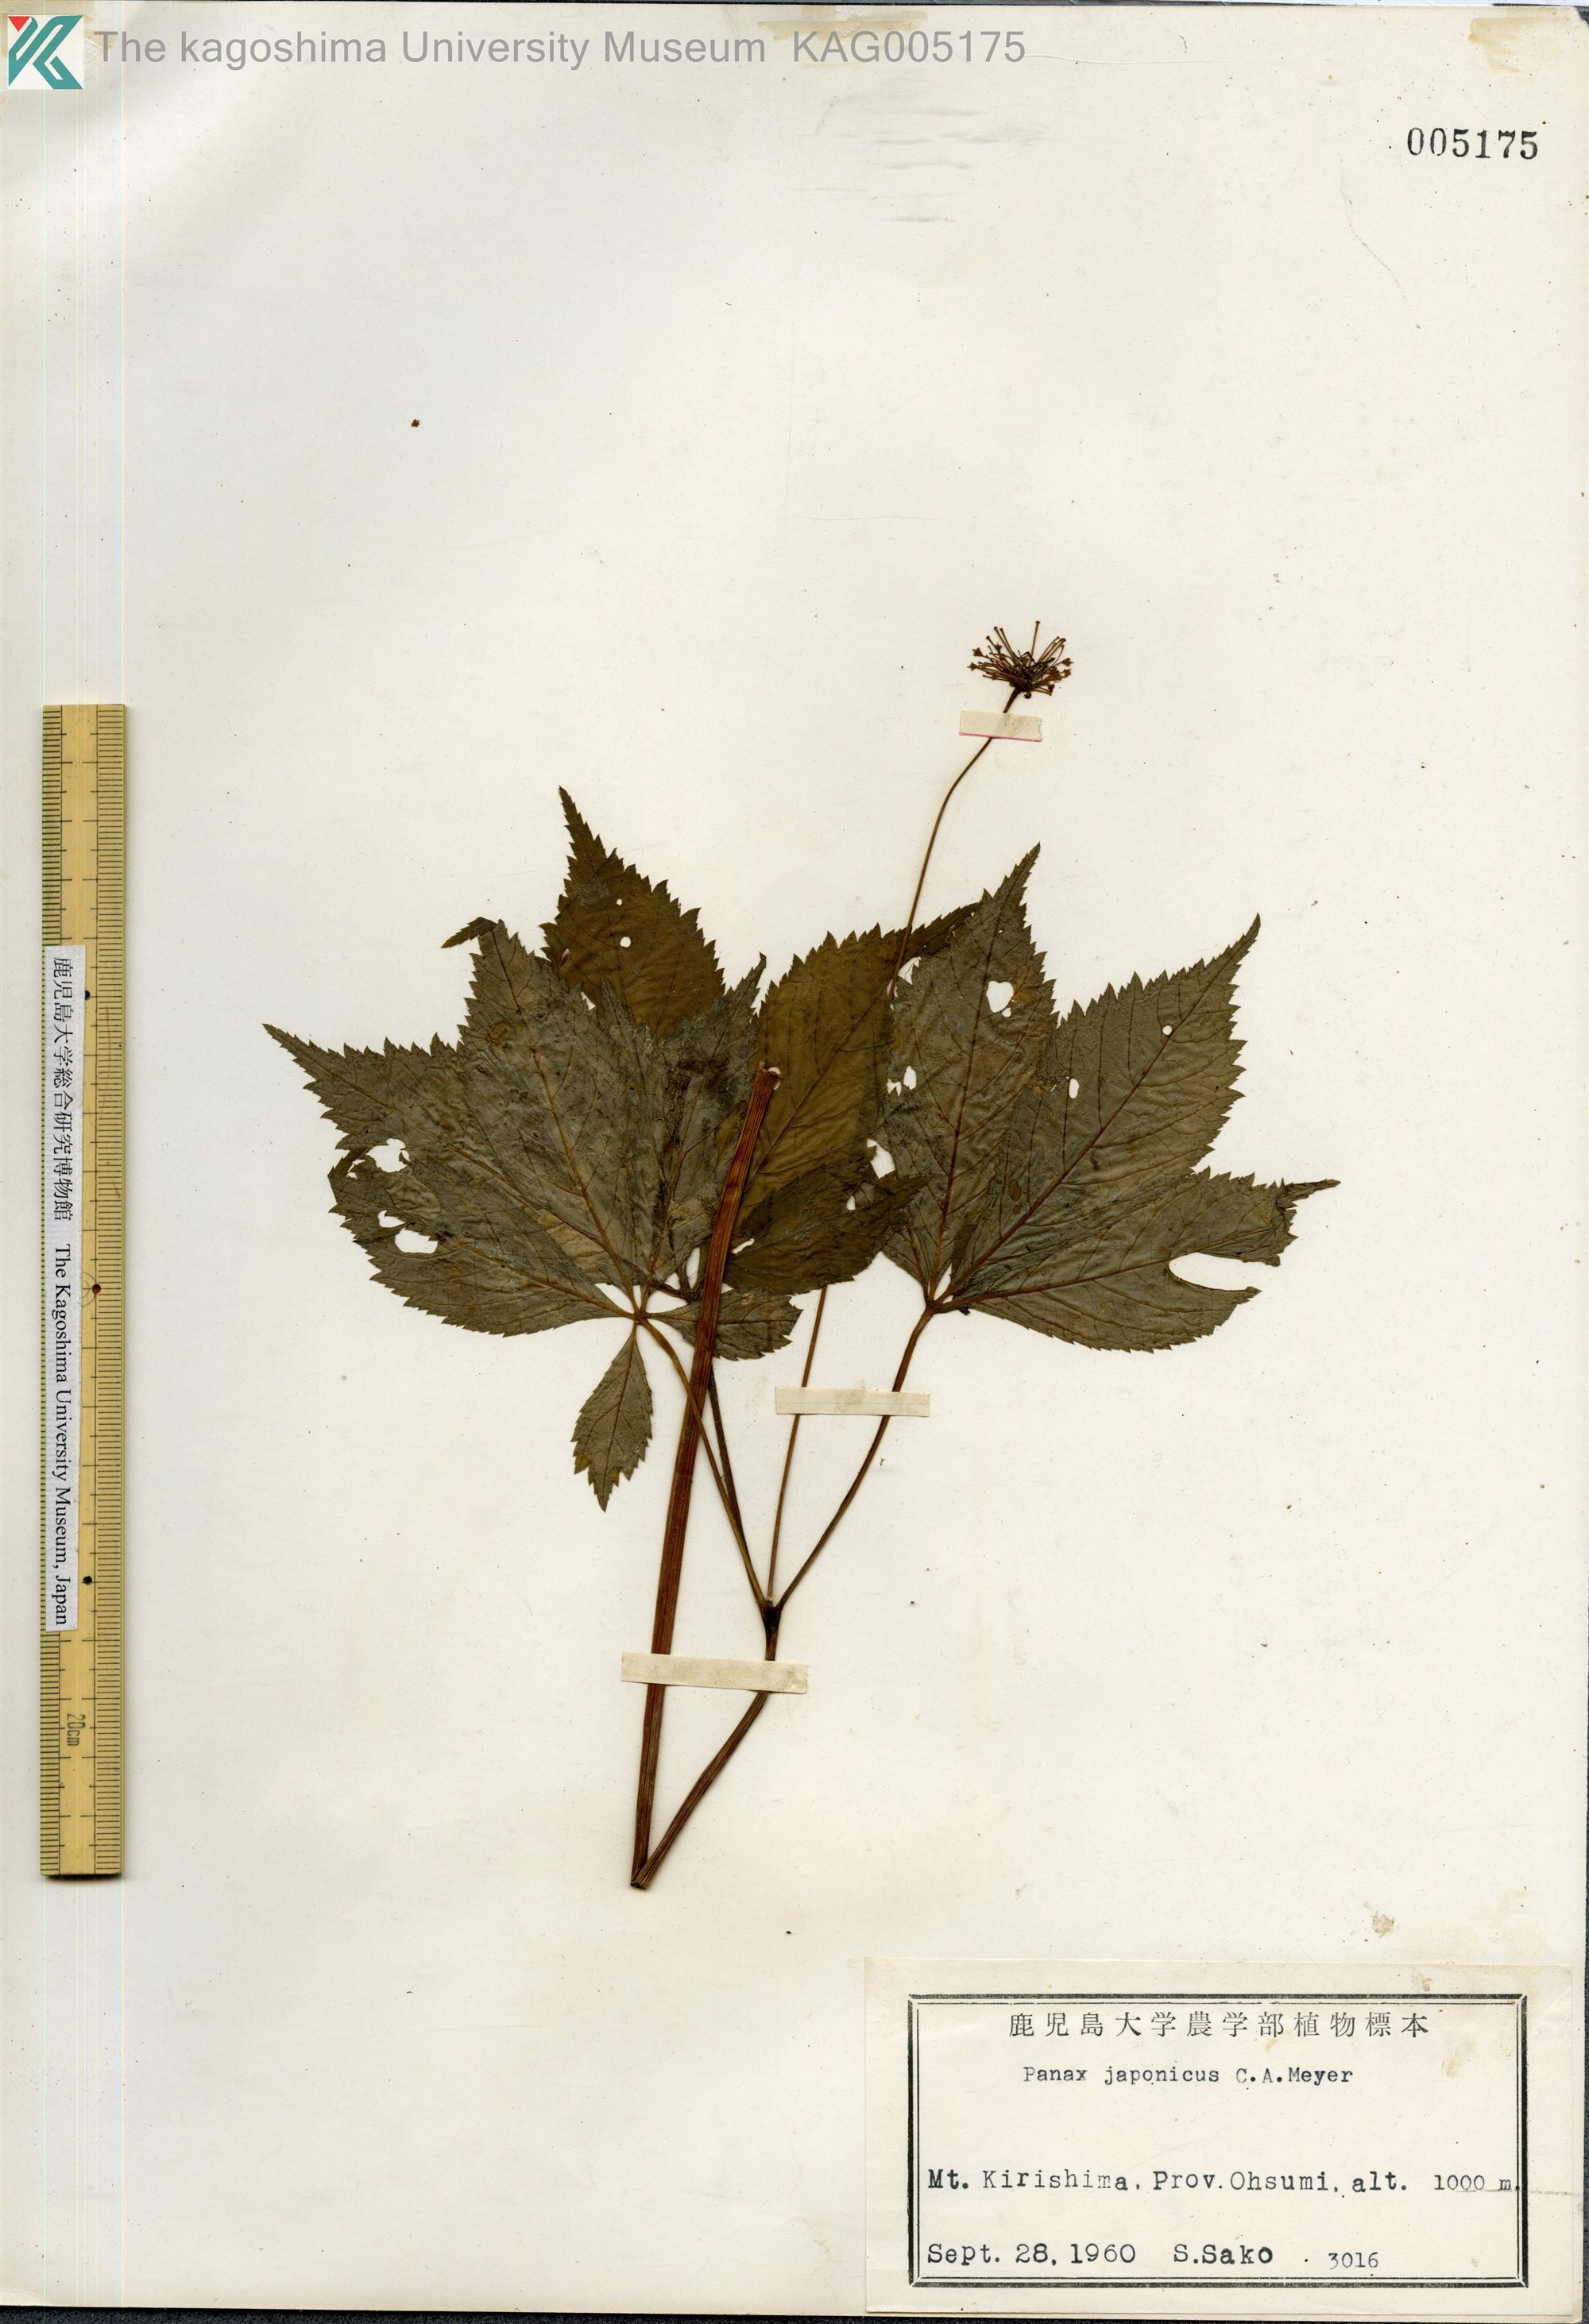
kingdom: Plantae
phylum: Tracheophyta
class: Magnoliopsida
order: Apiales
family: Araliaceae
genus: Panax
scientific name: Panax japonicus
